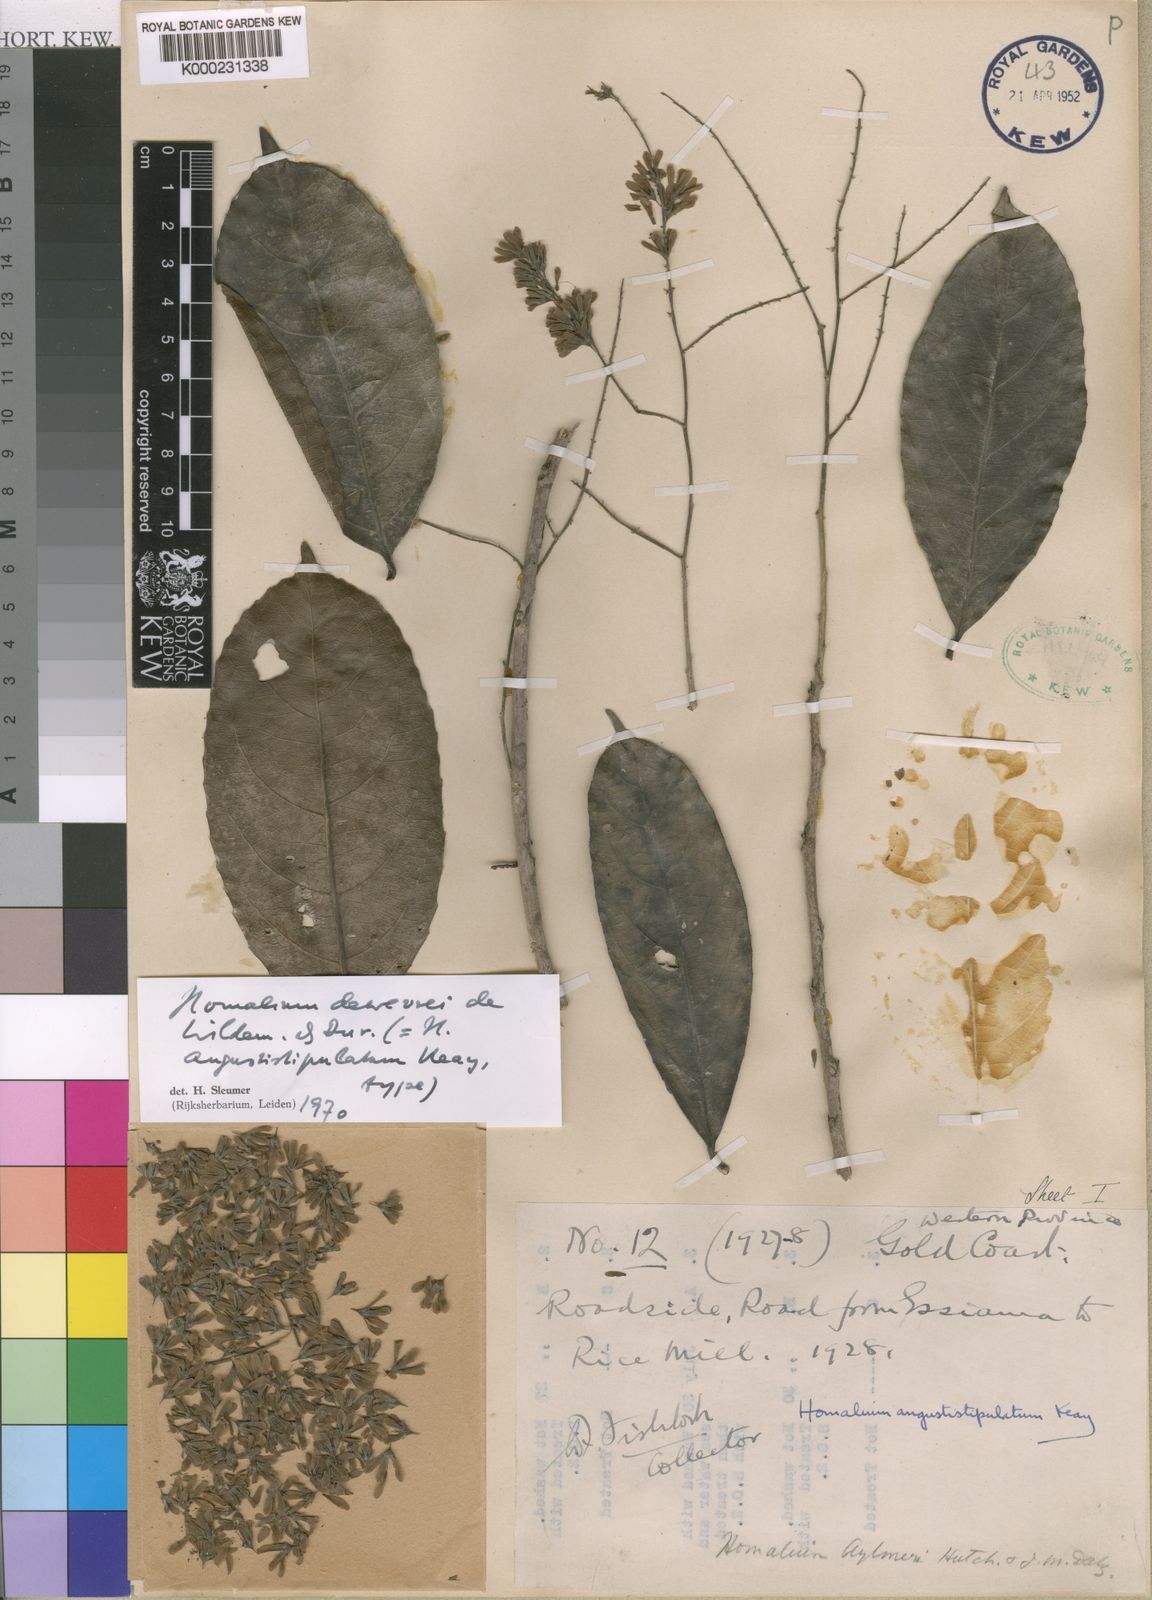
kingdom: Plantae
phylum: Tracheophyta
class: Magnoliopsida
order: Malpighiales
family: Salicaceae
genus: Homalium
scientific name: Homalium dewevrei
